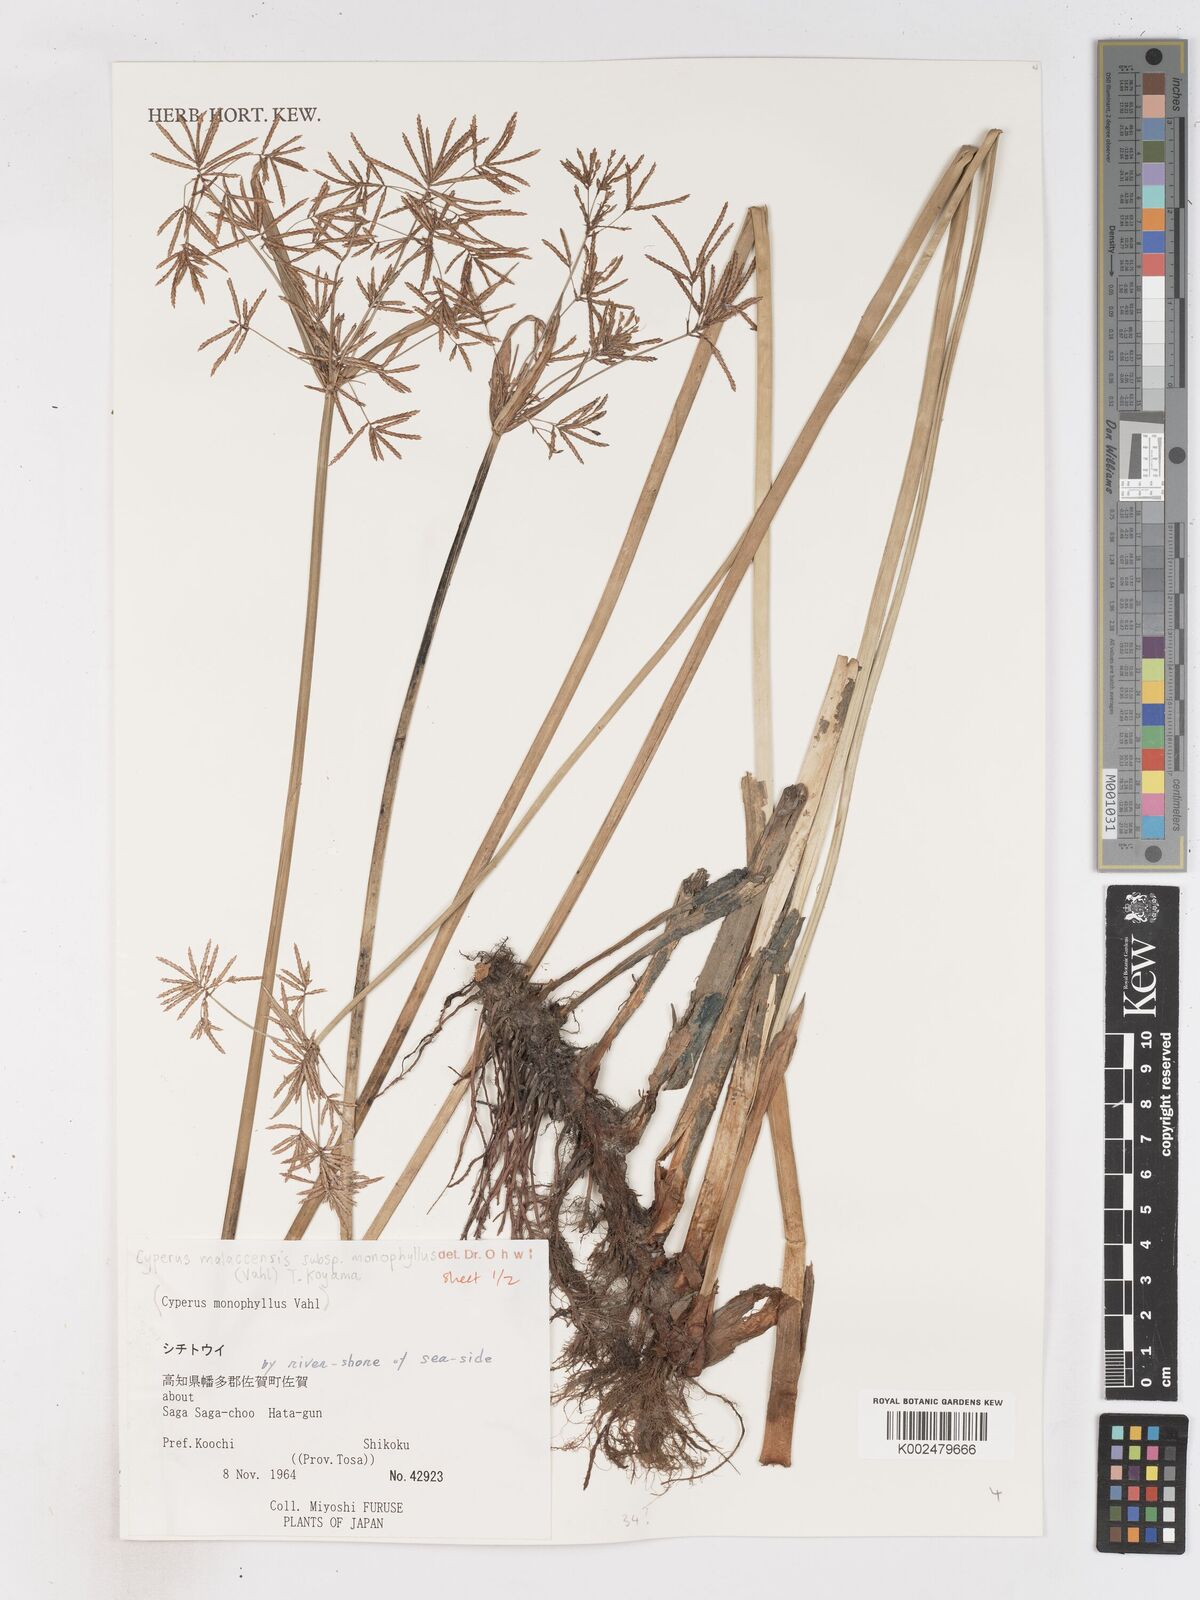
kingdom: Plantae
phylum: Tracheophyta
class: Liliopsida
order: Poales
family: Cyperaceae
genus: Cyperus
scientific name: Cyperus malaccensis
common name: Shichito matgrass
